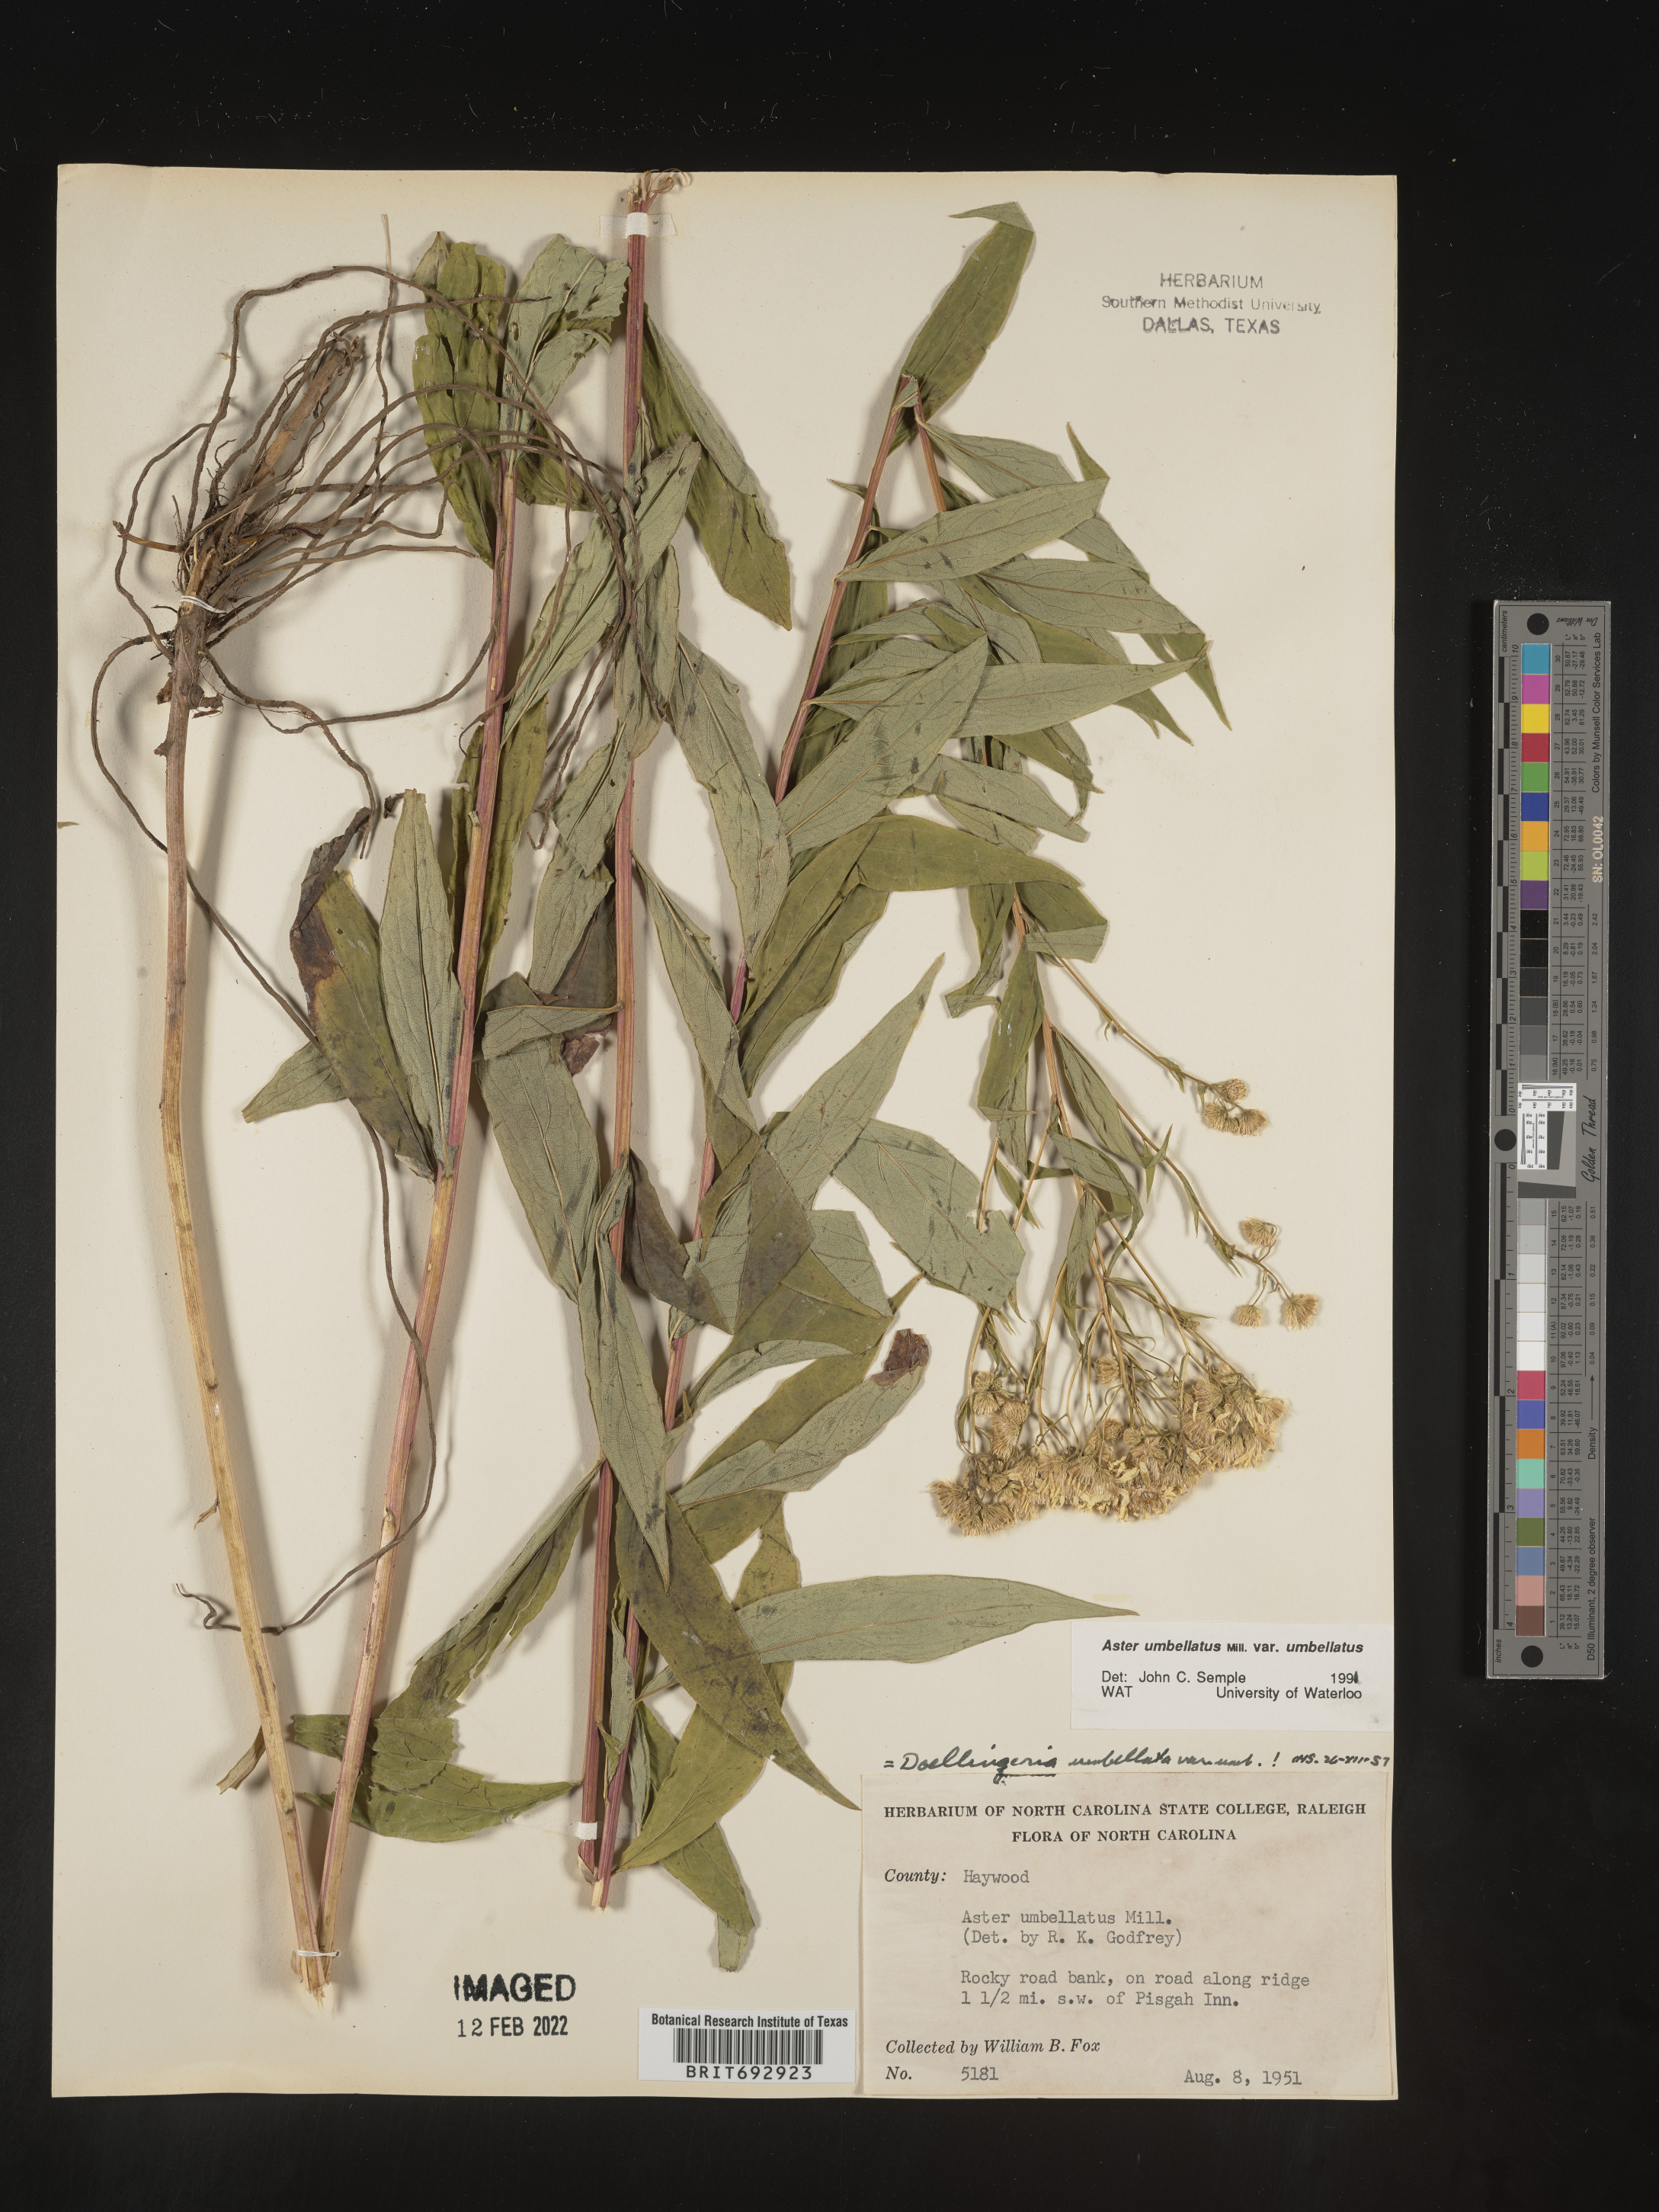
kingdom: Plantae
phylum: Tracheophyta
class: Magnoliopsida
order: Asterales
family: Asteraceae
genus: Doellingeria
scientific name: Doellingeria umbellata
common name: Flat-top white aster
